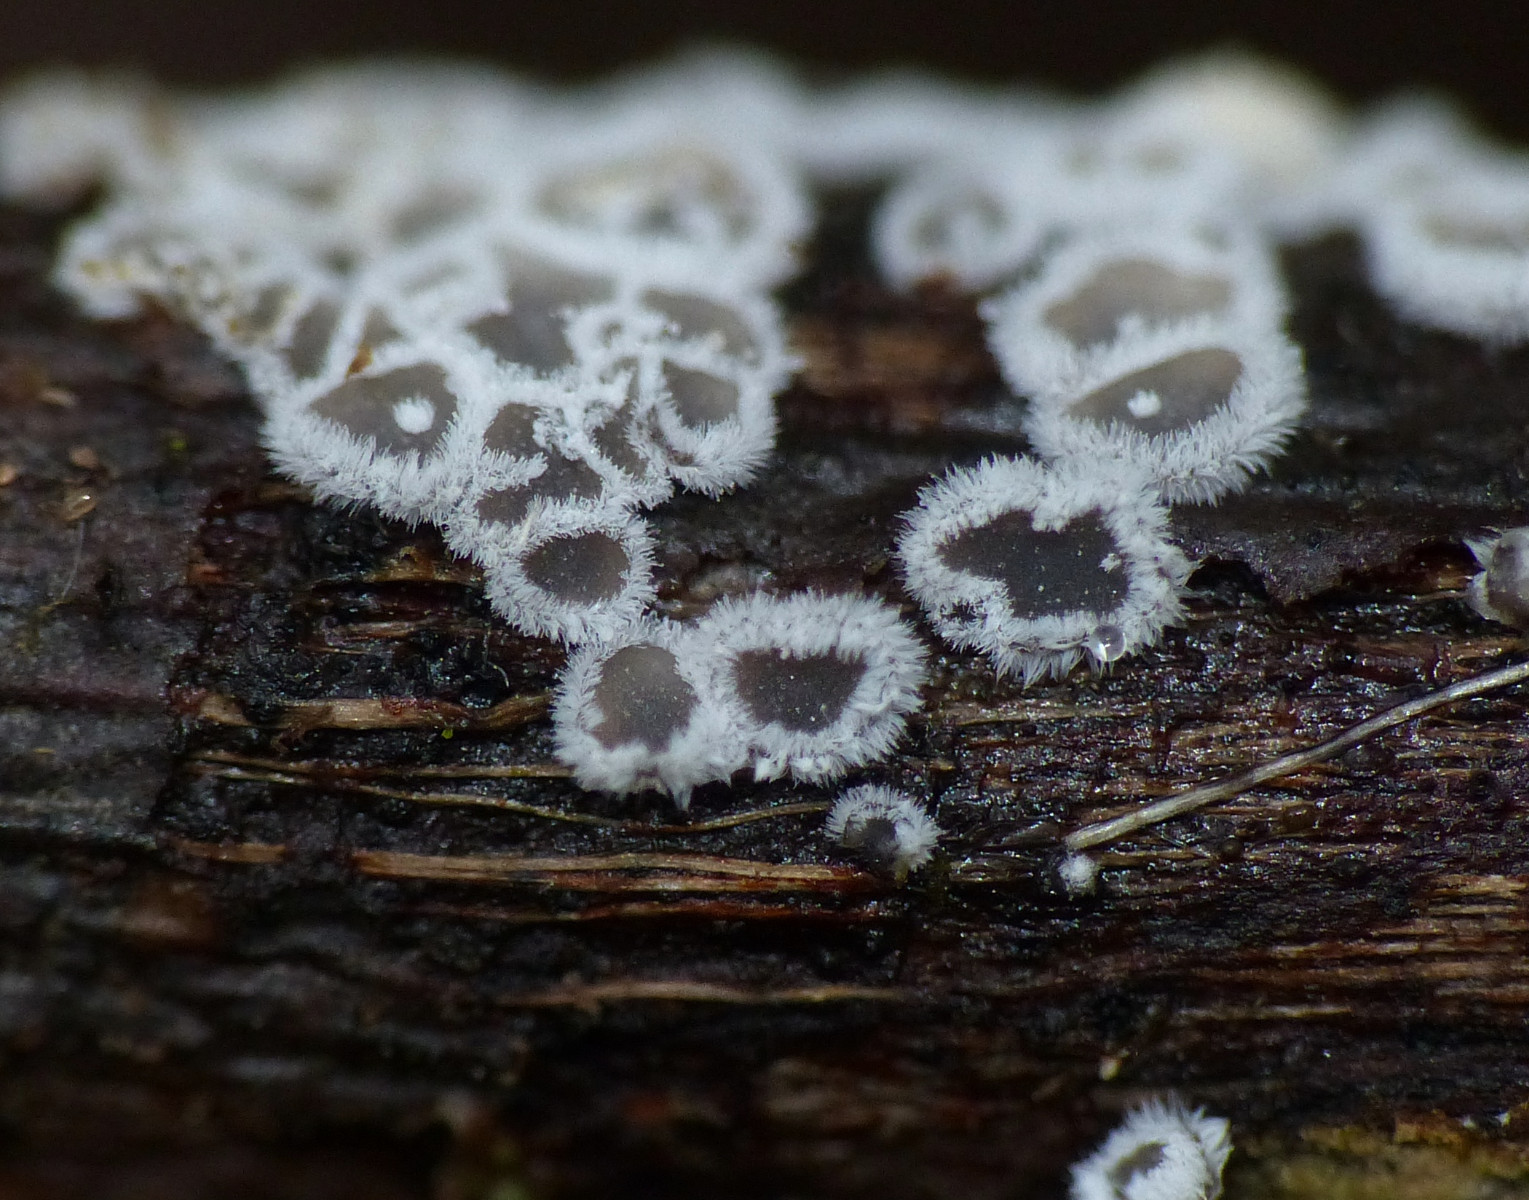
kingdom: Fungi
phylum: Basidiomycota
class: Agaricomycetes
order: Agaricales
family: Niaceae
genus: Lachnella
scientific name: Lachnella alboviolascens
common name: grå frynserede
